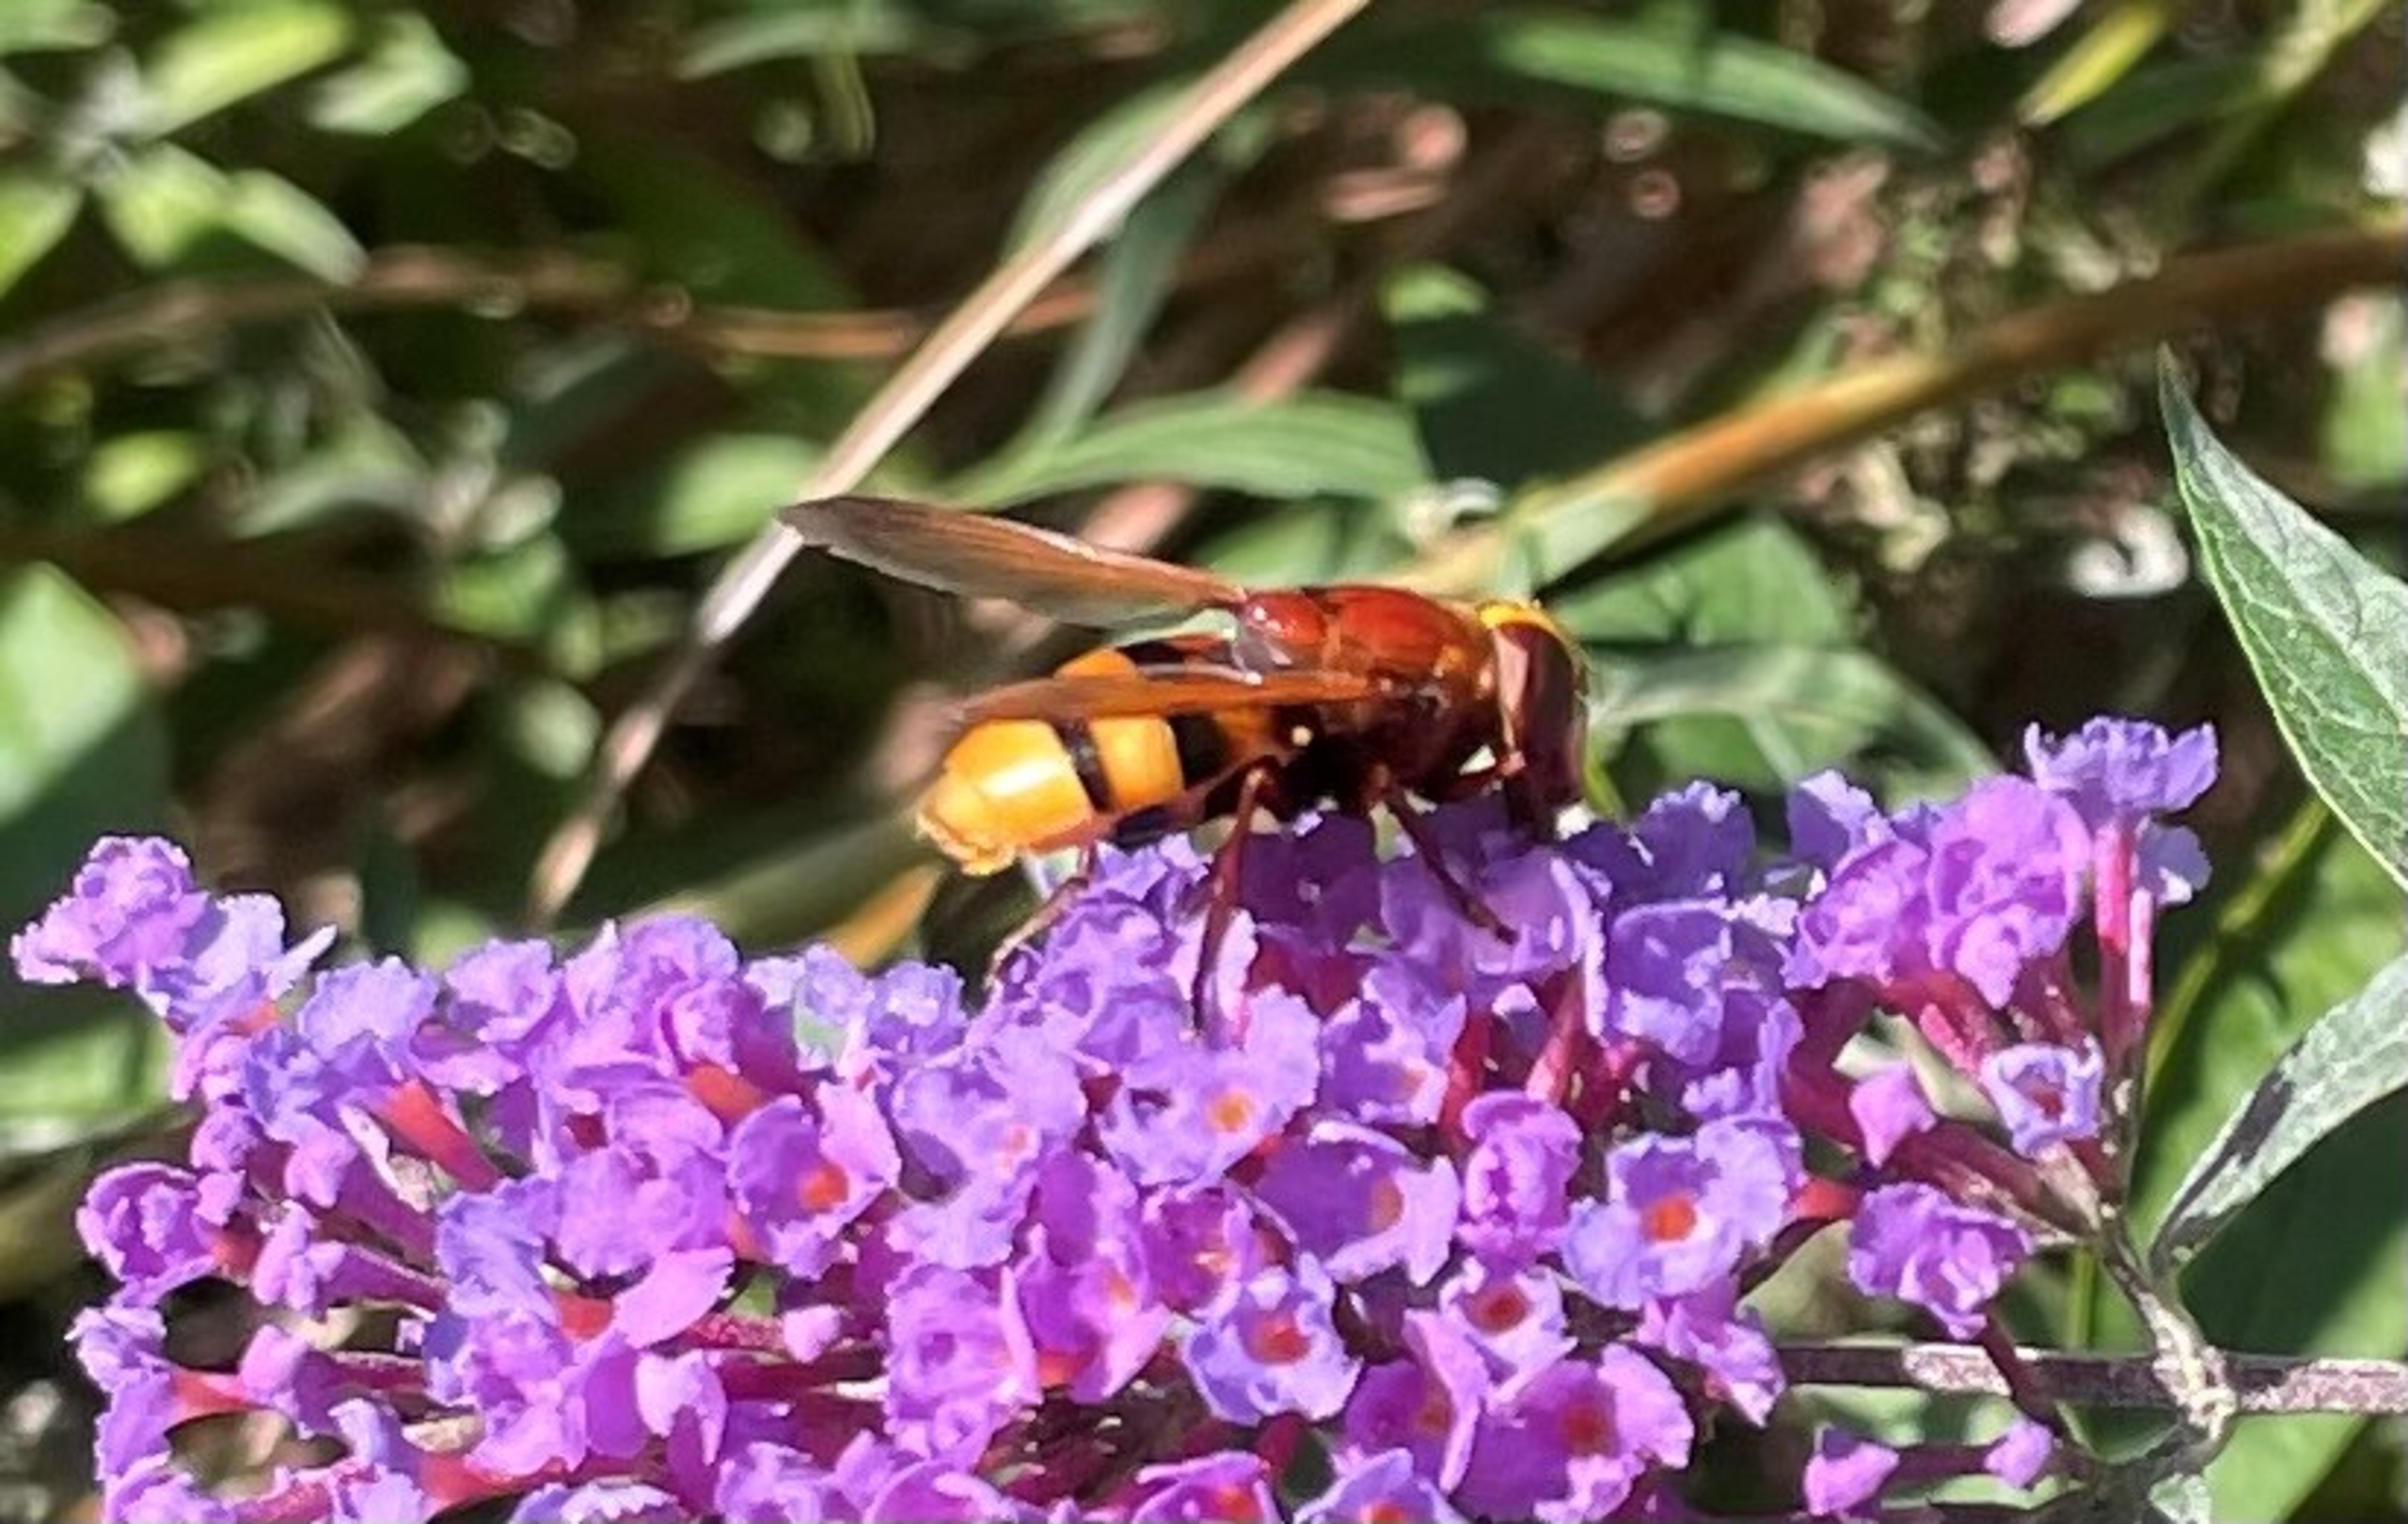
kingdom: Animalia
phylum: Arthropoda
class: Insecta
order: Diptera
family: Syrphidae
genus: Volucella
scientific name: Volucella zonaria
